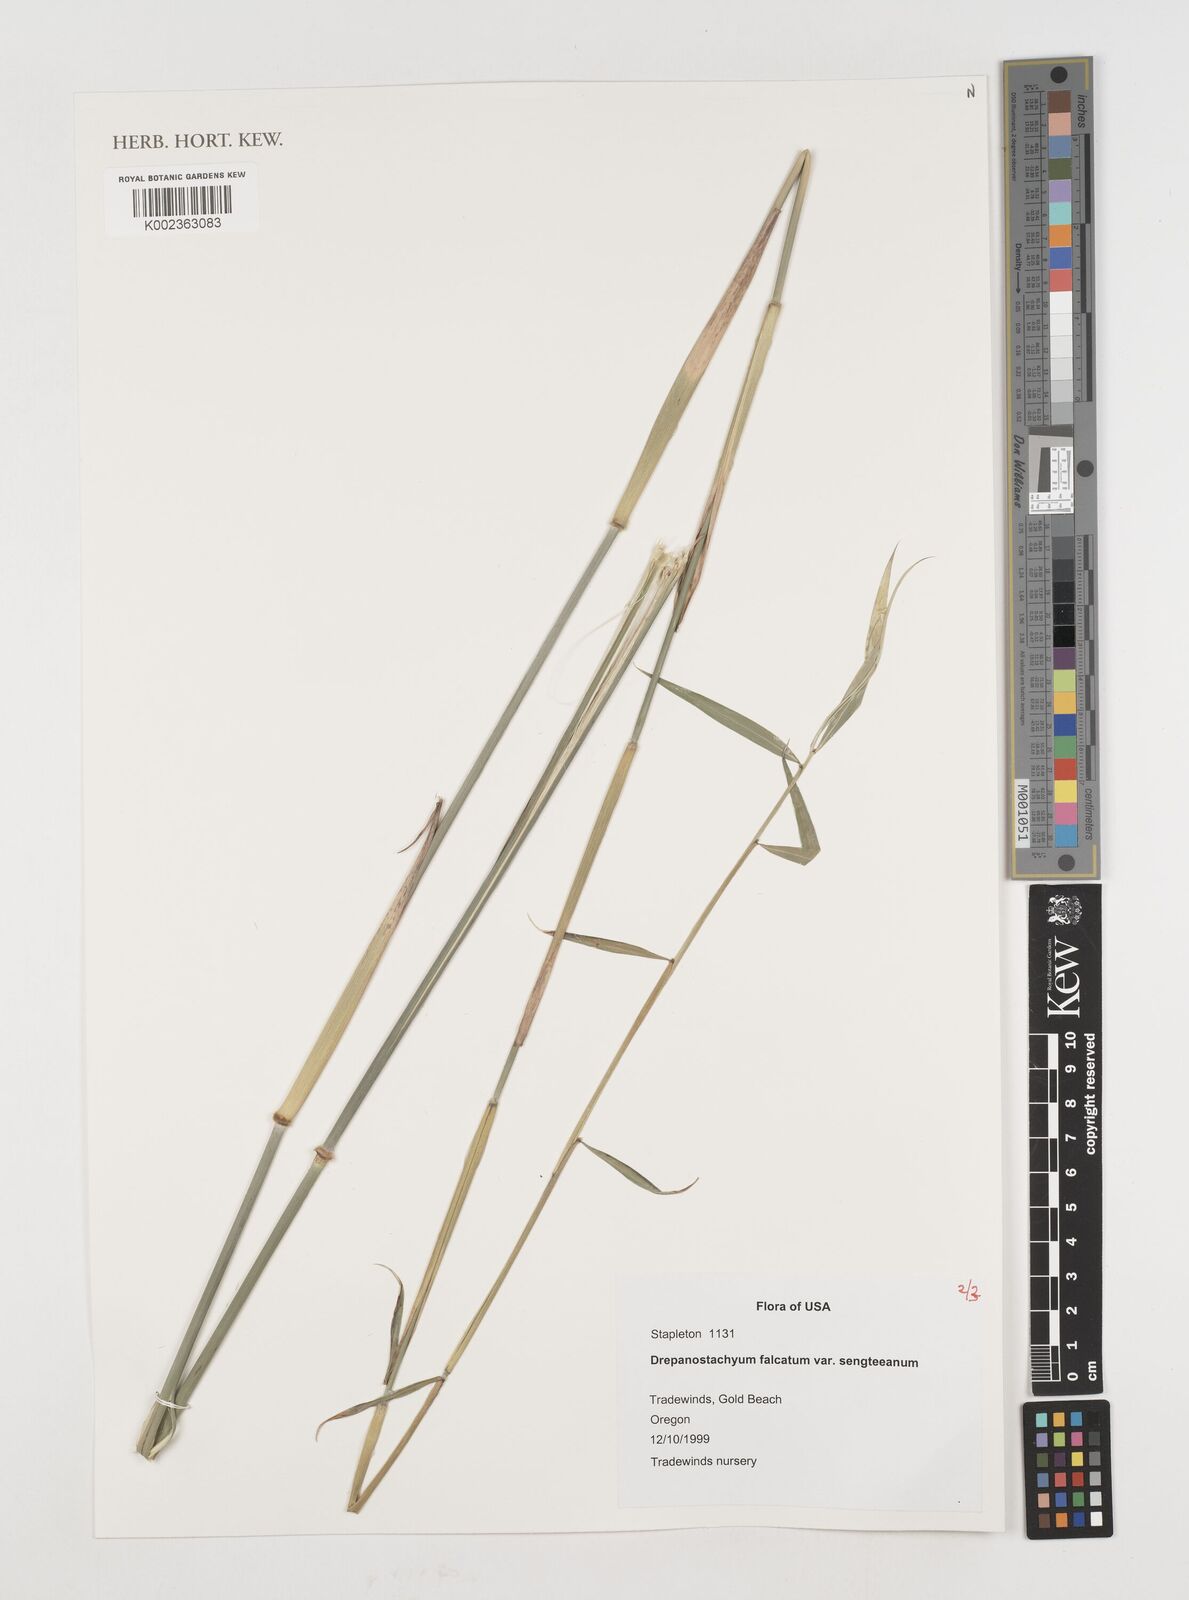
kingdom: Plantae
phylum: Tracheophyta
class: Liliopsida
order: Poales
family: Poaceae
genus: Drepanostachyum
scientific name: Drepanostachyum falcatum
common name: Himalayan bamboo
